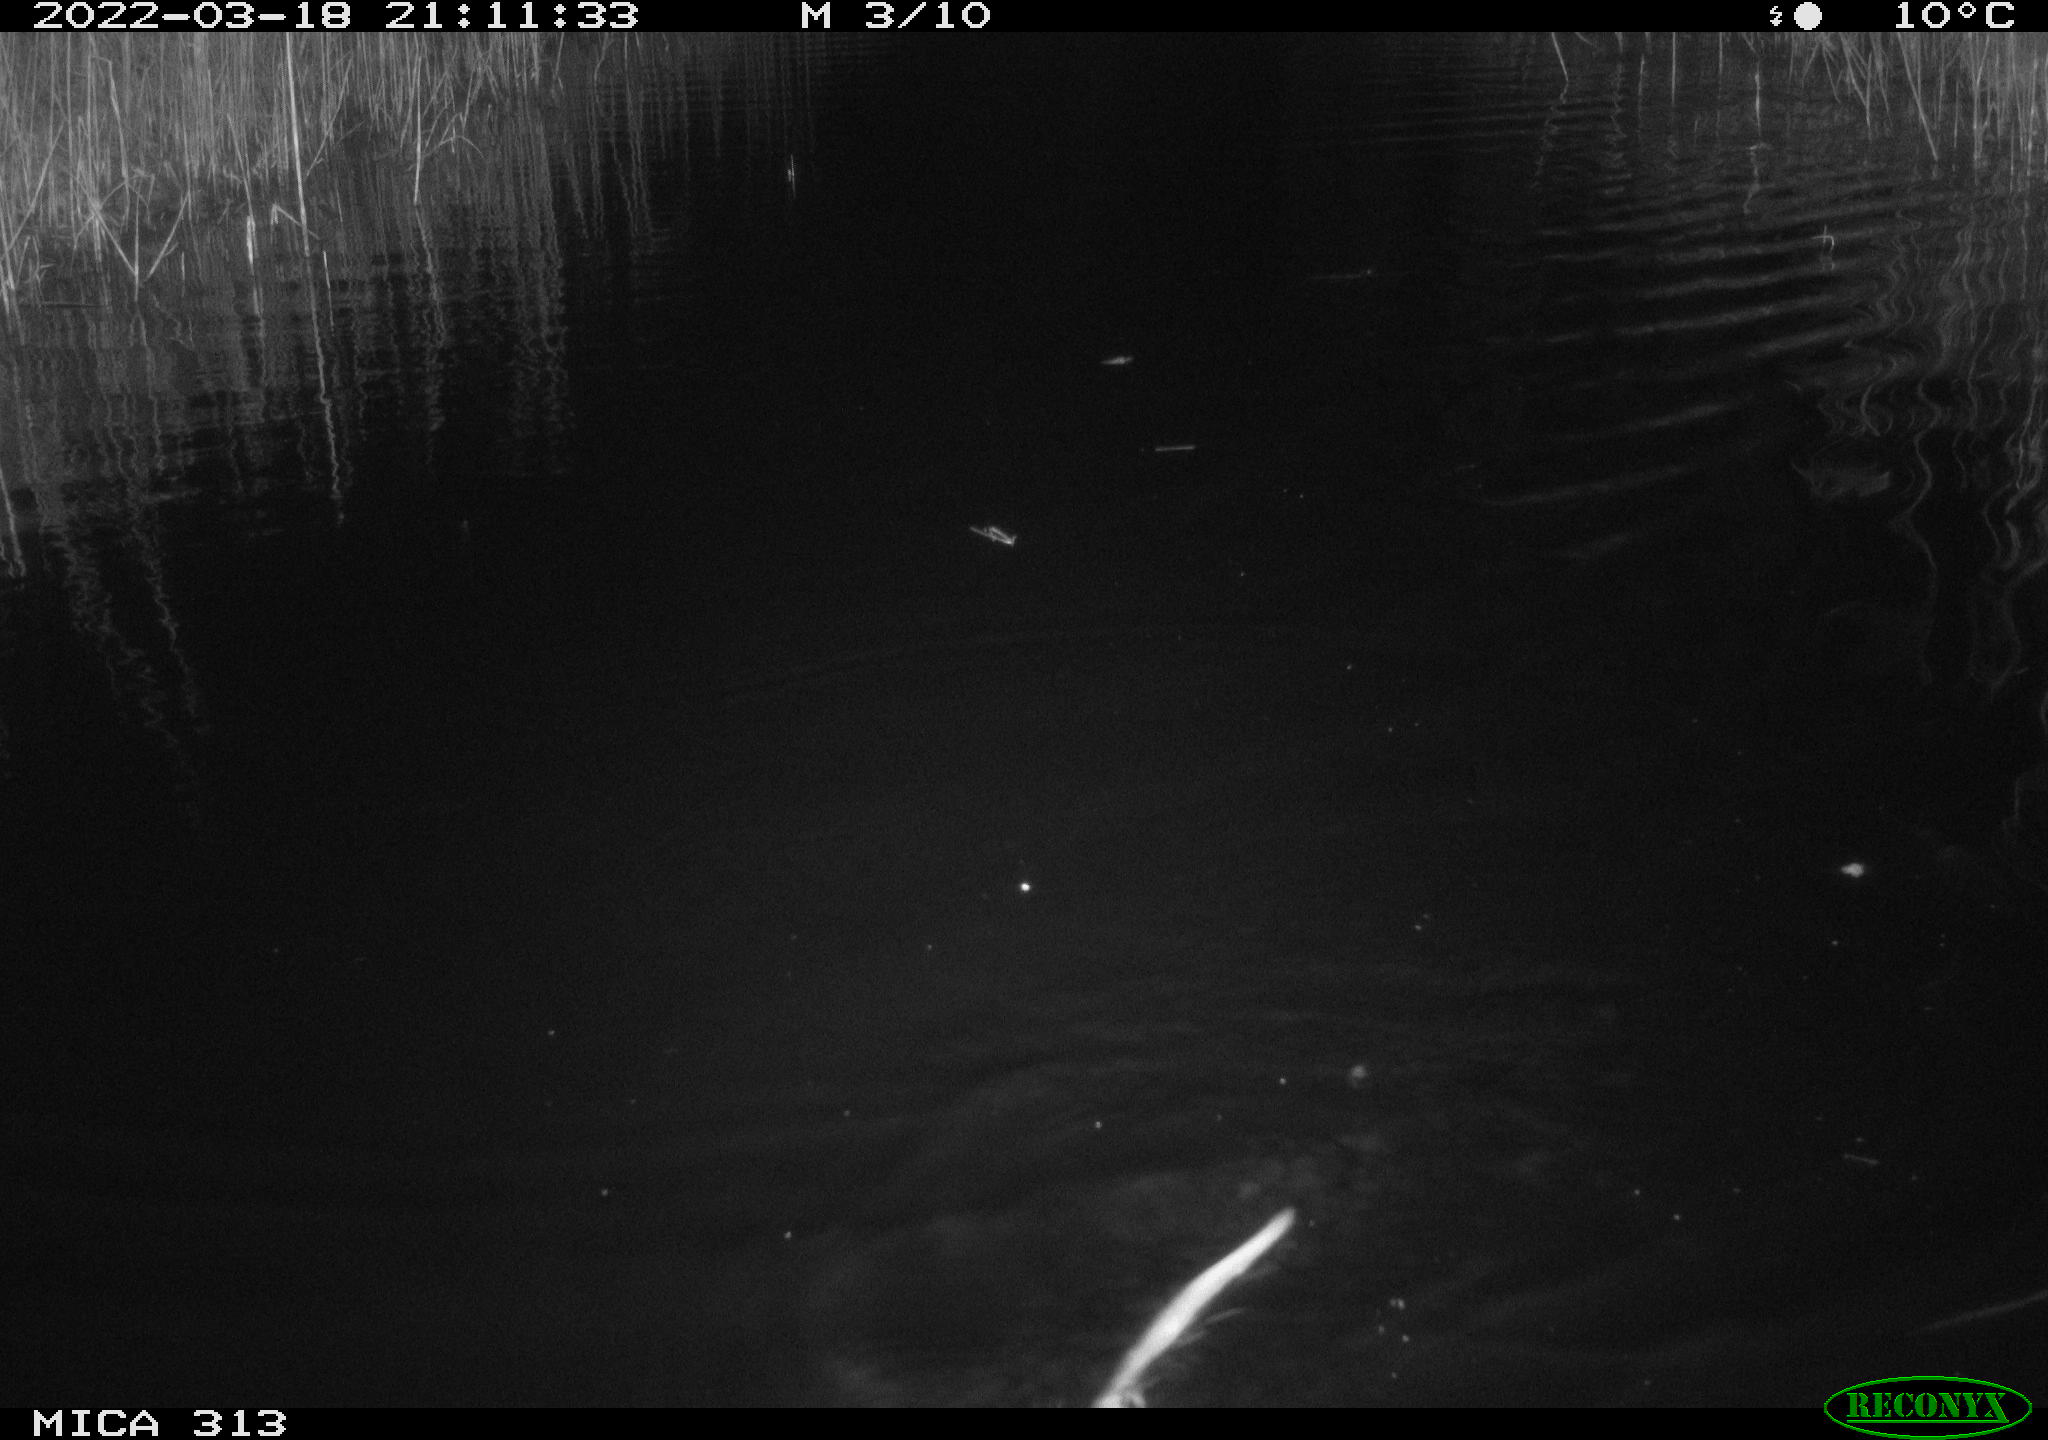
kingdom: Animalia
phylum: Chordata
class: Mammalia
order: Rodentia
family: Cricetidae
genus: Ondatra
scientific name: Ondatra zibethicus
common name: Muskrat
